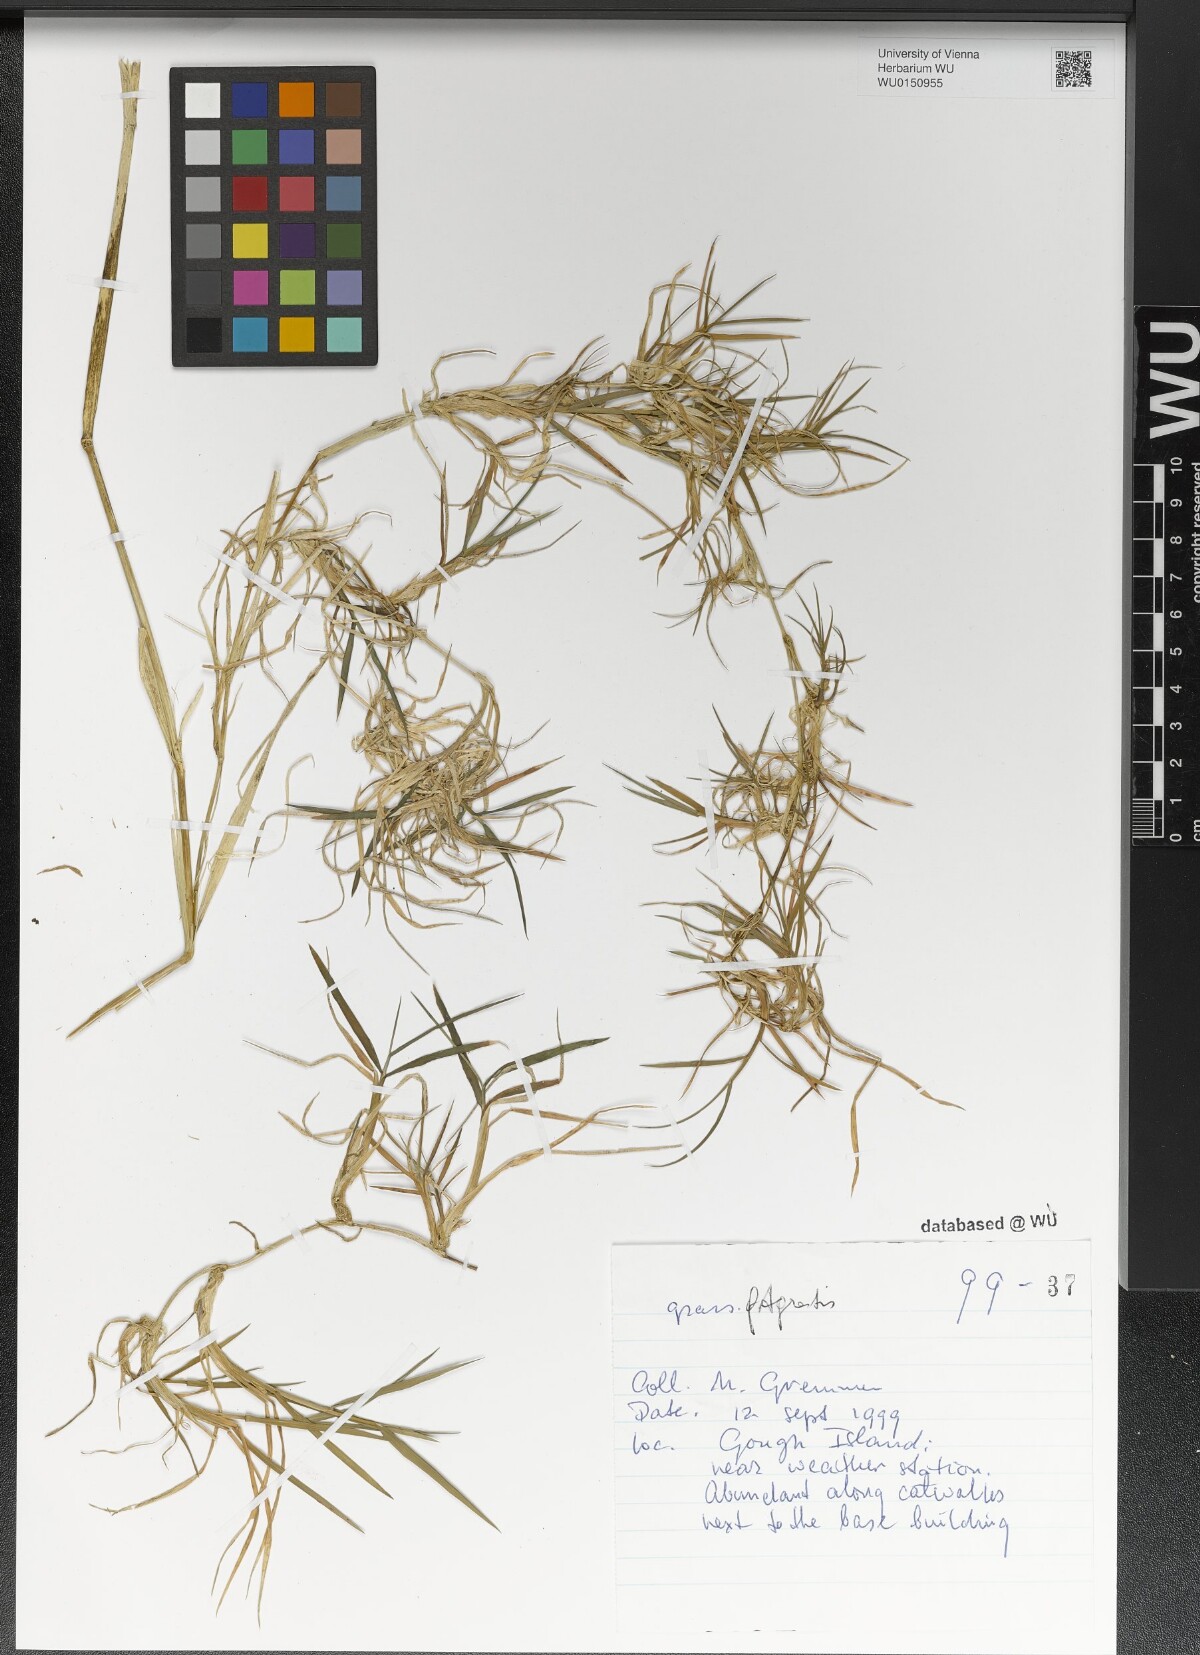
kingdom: Plantae
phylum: Tracheophyta
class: Liliopsida
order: Poales
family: Poaceae
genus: Agrostis
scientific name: Agrostis stolonifera
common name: Creeping bentgrass
